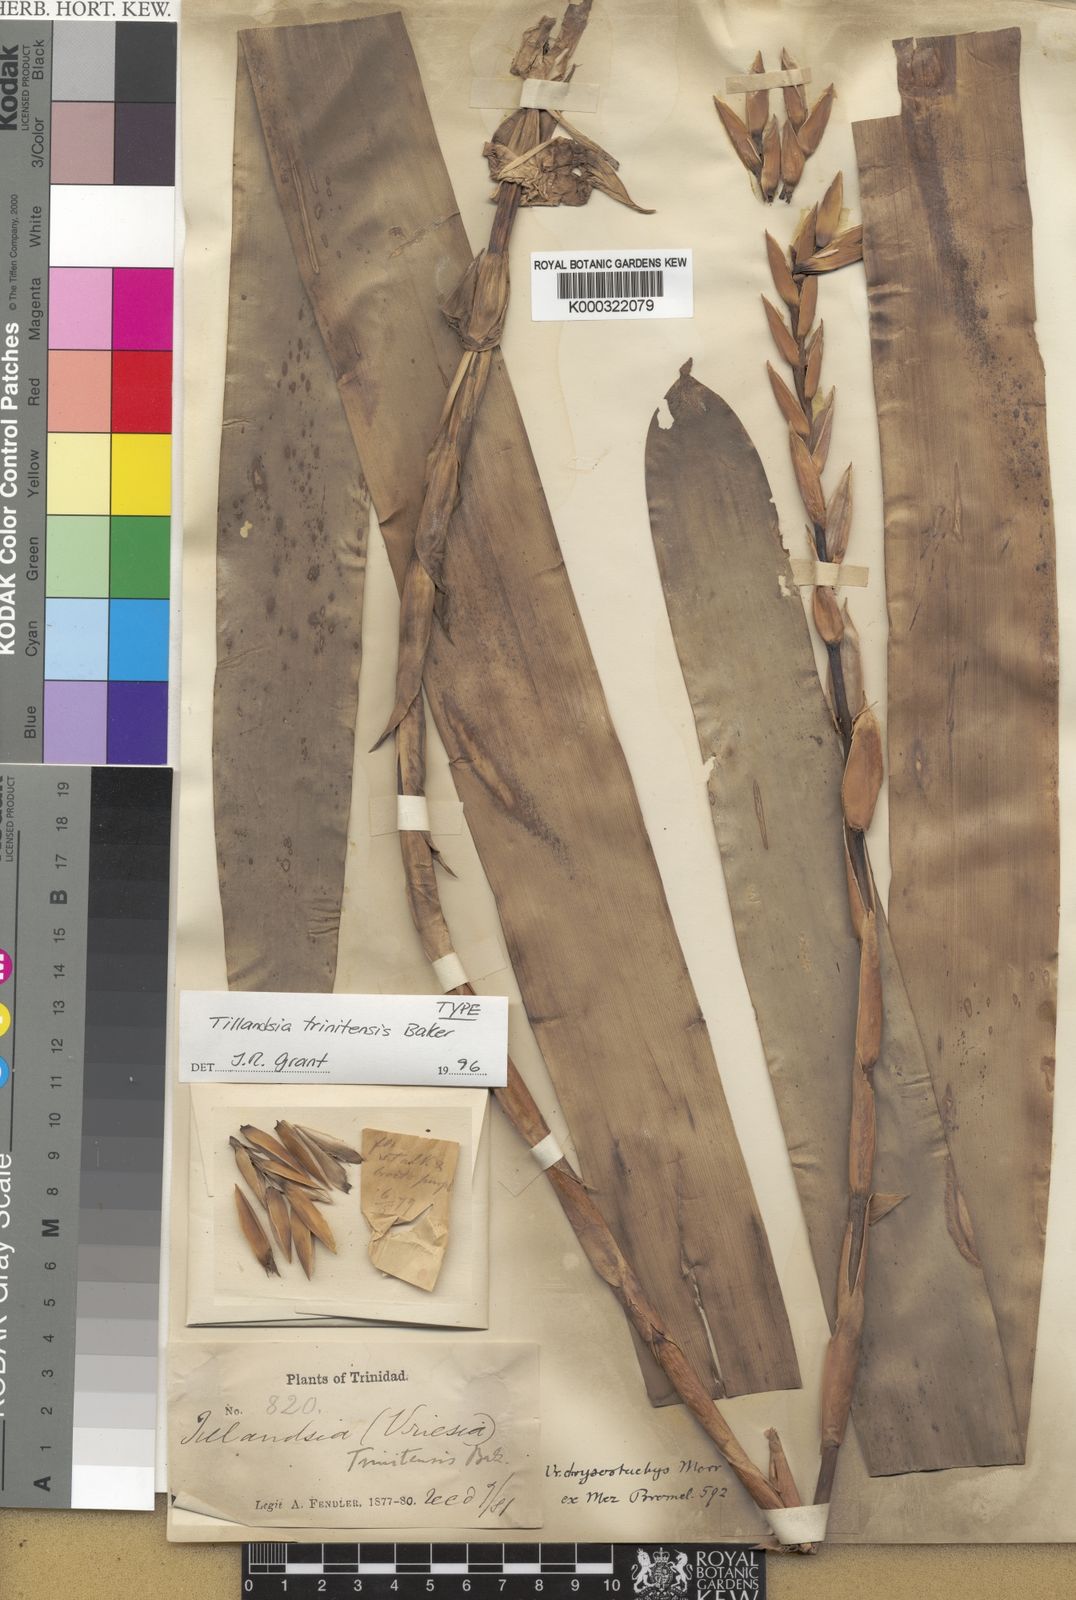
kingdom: Plantae
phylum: Tracheophyta
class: Liliopsida
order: Poales
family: Bromeliaceae
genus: Goudaea
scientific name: Goudaea chrysostachys
